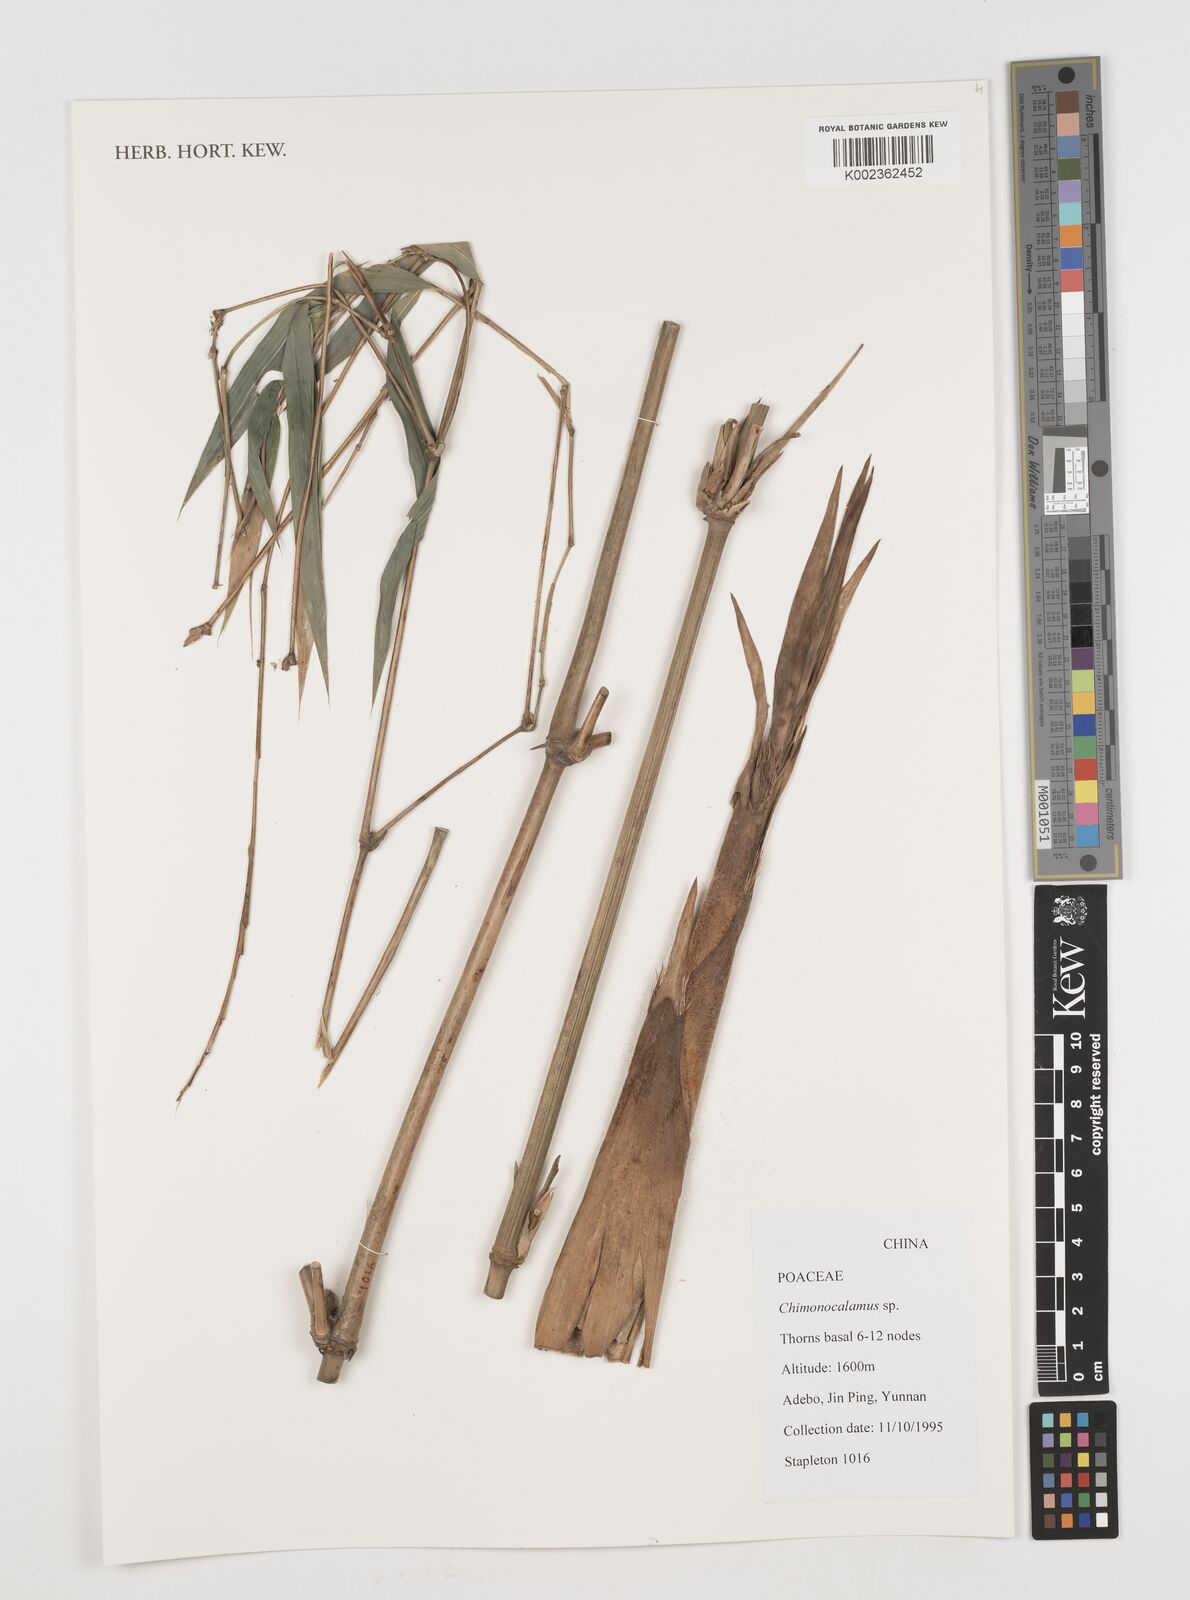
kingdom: Plantae
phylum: Tracheophyta
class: Liliopsida
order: Poales
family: Poaceae
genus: Chimonocalamus
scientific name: Chimonocalamus
